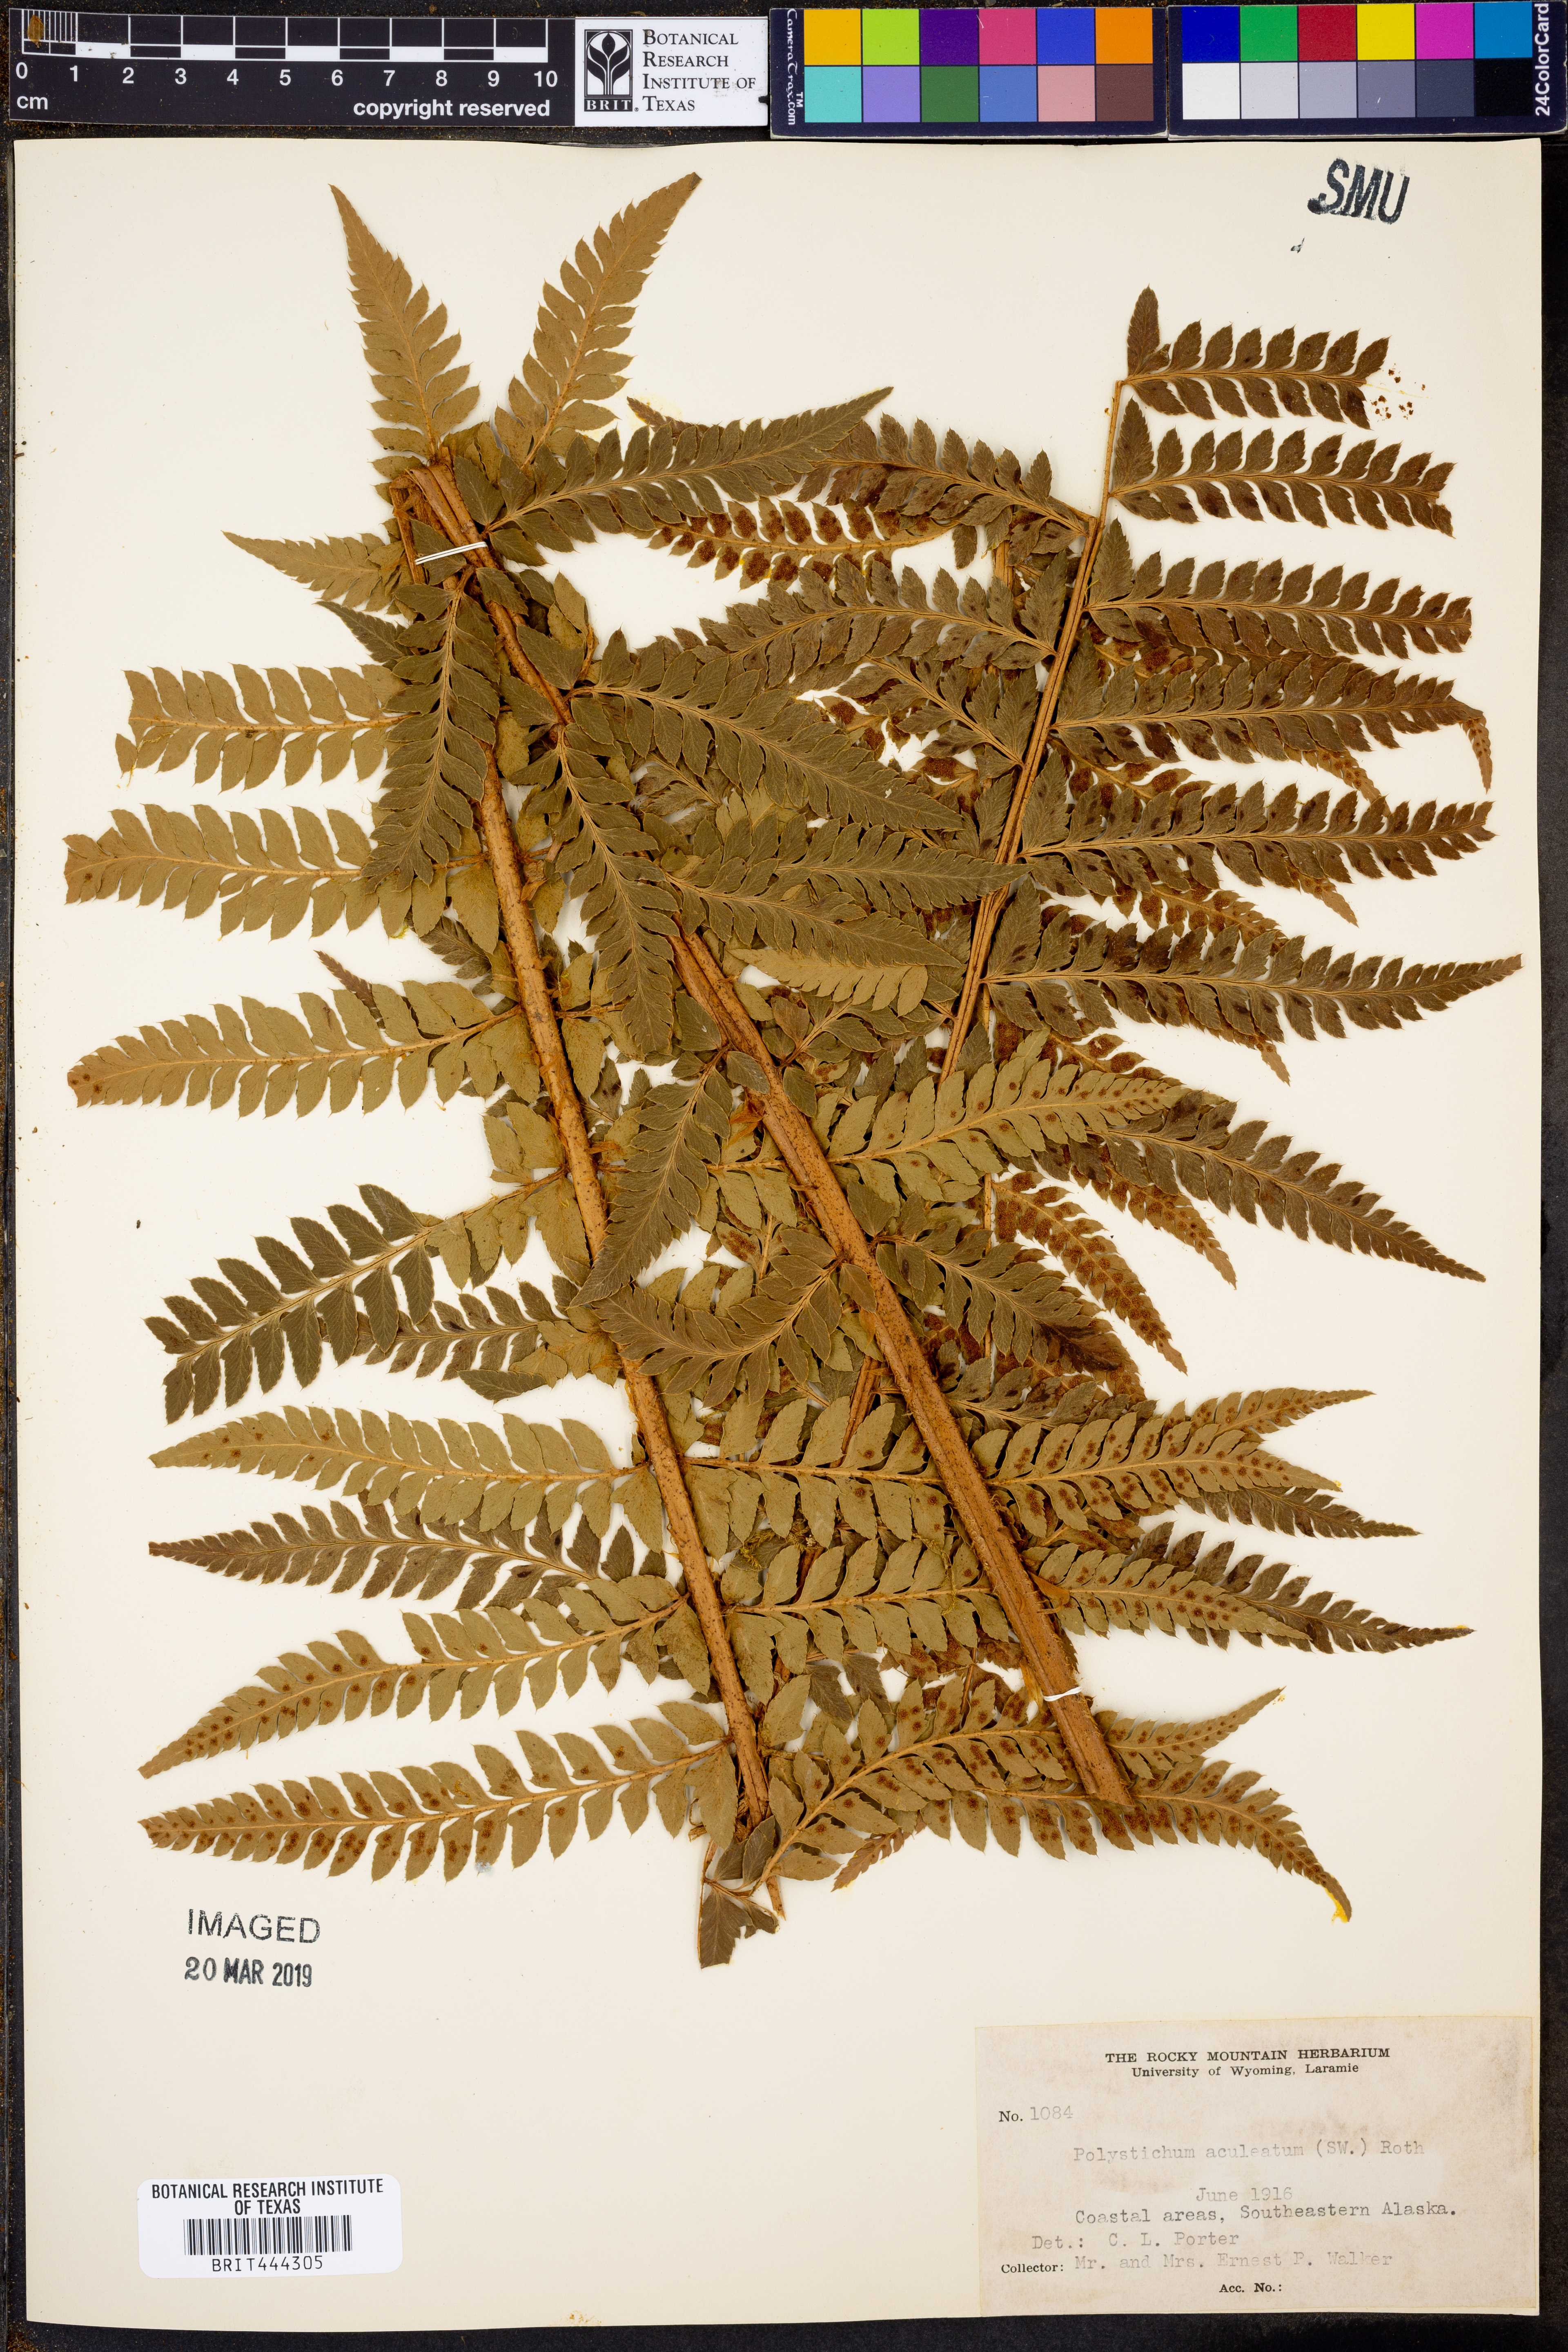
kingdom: Plantae
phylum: Tracheophyta
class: Polypodiopsida
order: Polypodiales
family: Dryopteridaceae
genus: Polystichum
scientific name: Polystichum aculeatum
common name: Hard shield-fern
